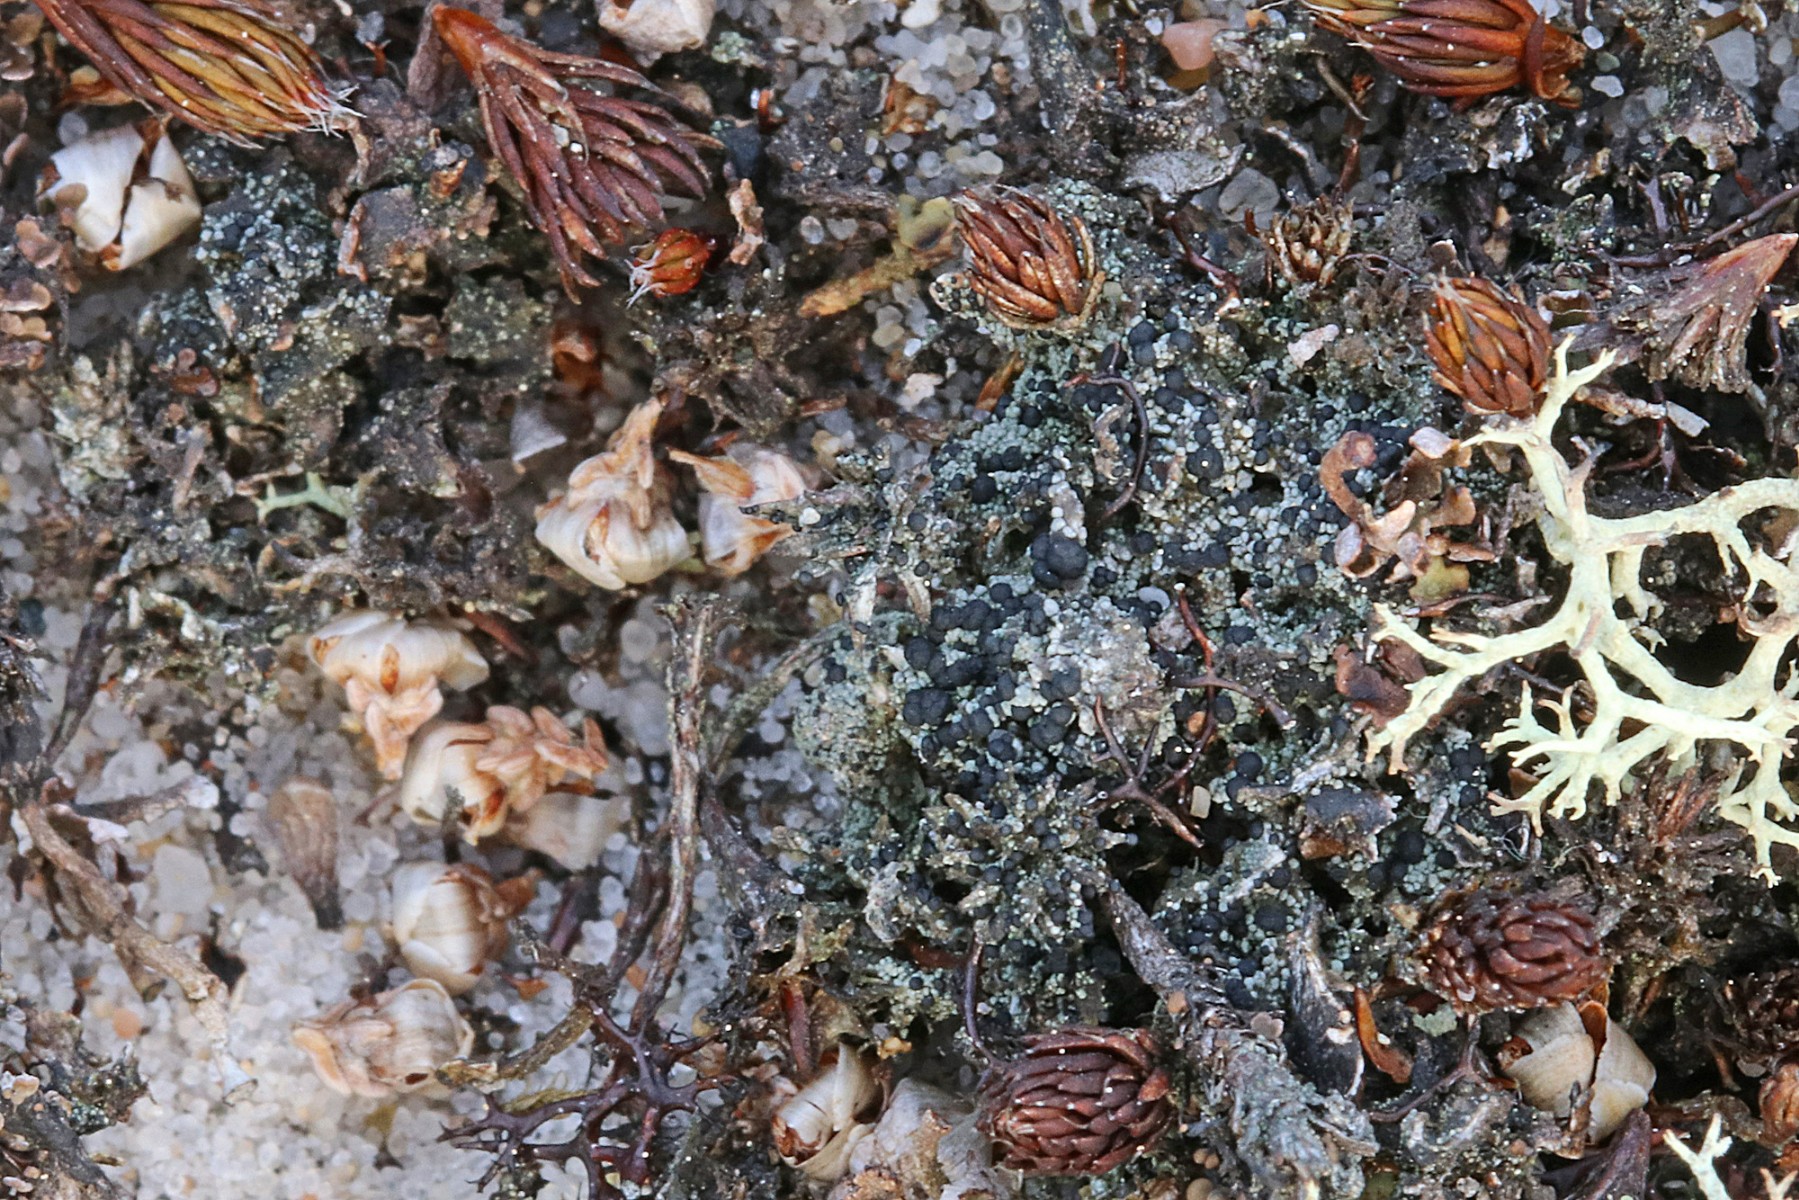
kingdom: Fungi
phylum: Ascomycota
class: Lecanoromycetes
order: Lecanorales
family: Byssolomataceae
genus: Micarea
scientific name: Micarea lignaria
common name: tørve-knaplav
